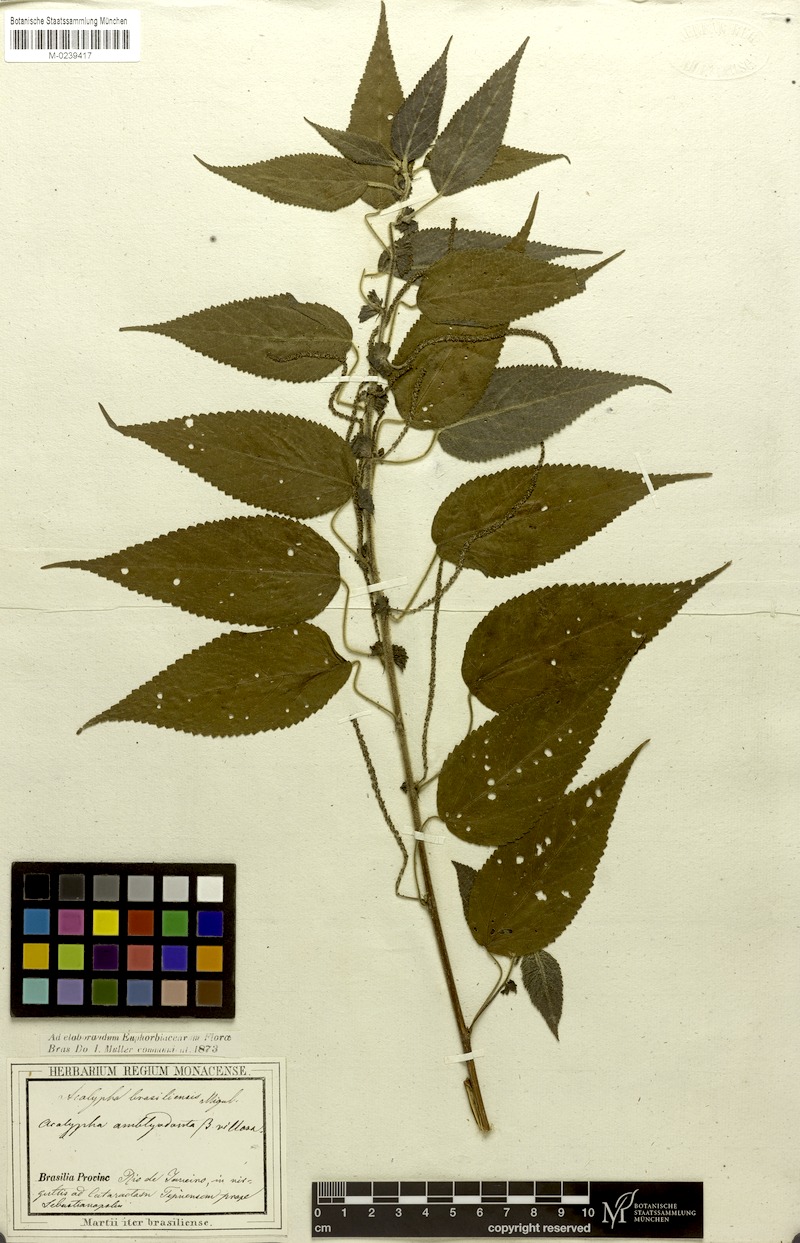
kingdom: Plantae
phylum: Tracheophyta
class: Magnoliopsida
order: Malpighiales
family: Euphorbiaceae
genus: Acalypha
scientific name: Acalypha amblyodonta
